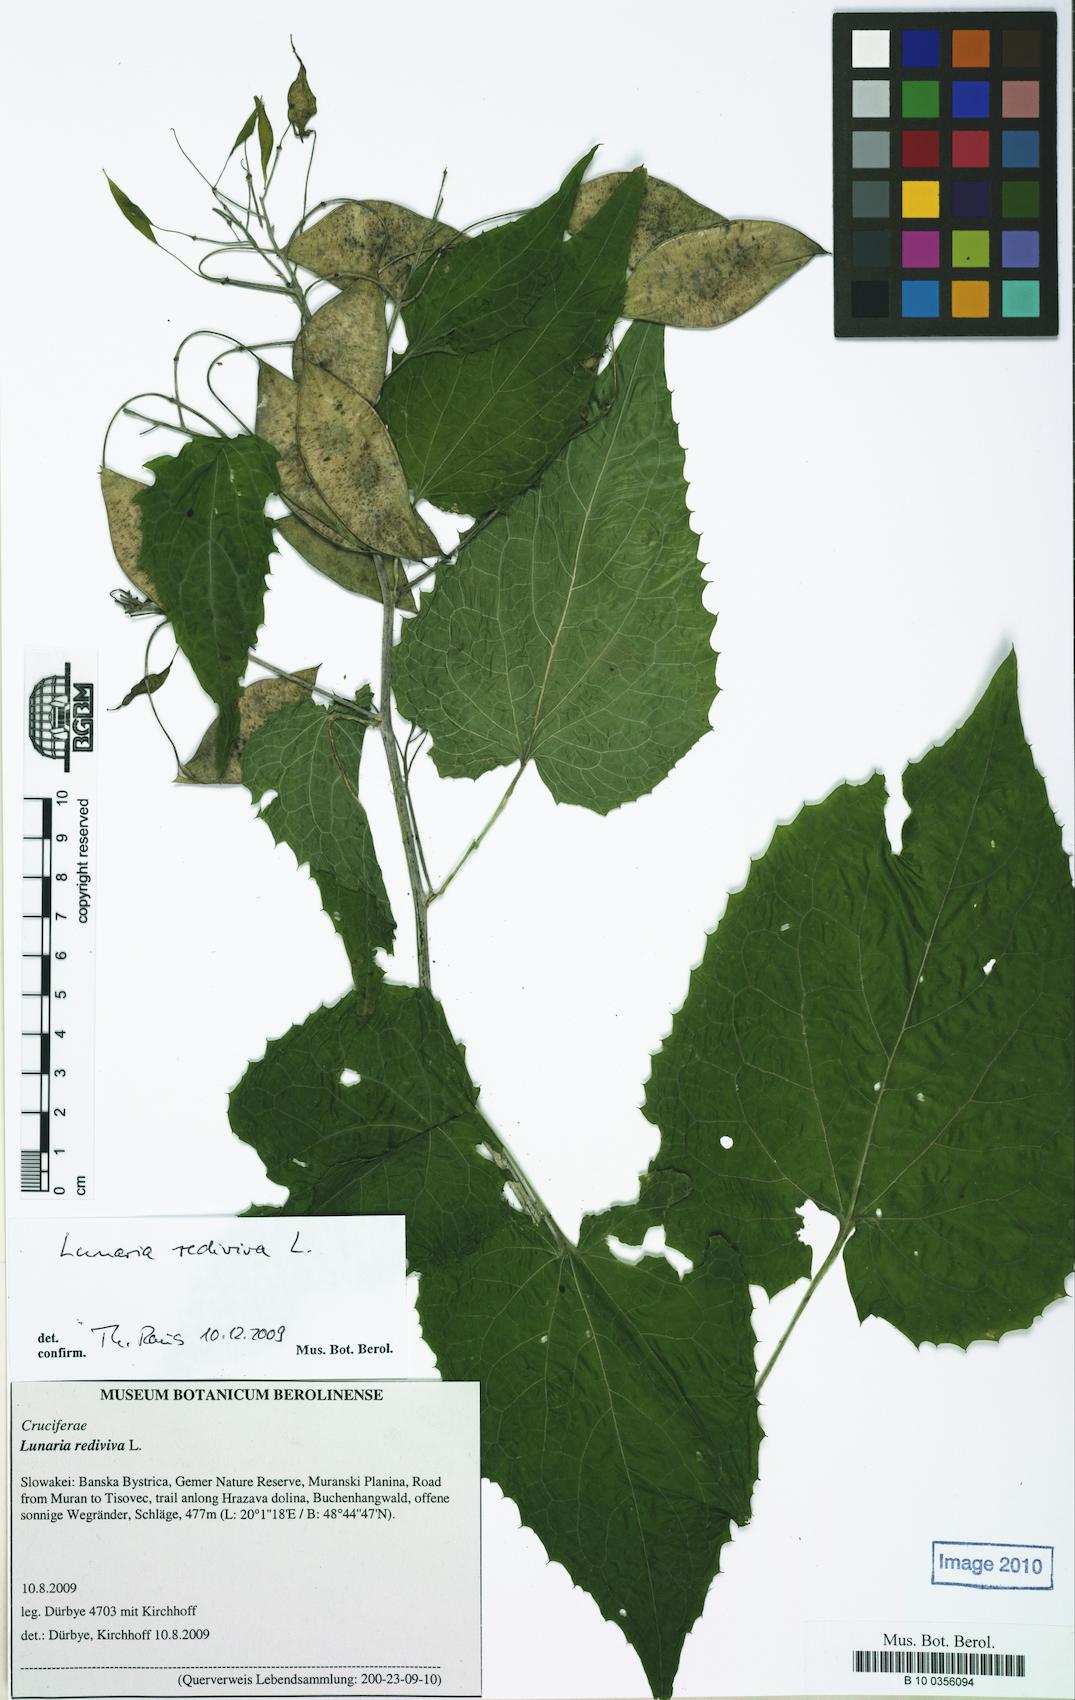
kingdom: Plantae
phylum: Tracheophyta
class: Magnoliopsida
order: Brassicales
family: Brassicaceae
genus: Lunaria
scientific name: Lunaria rediviva
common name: Perennial honesty
